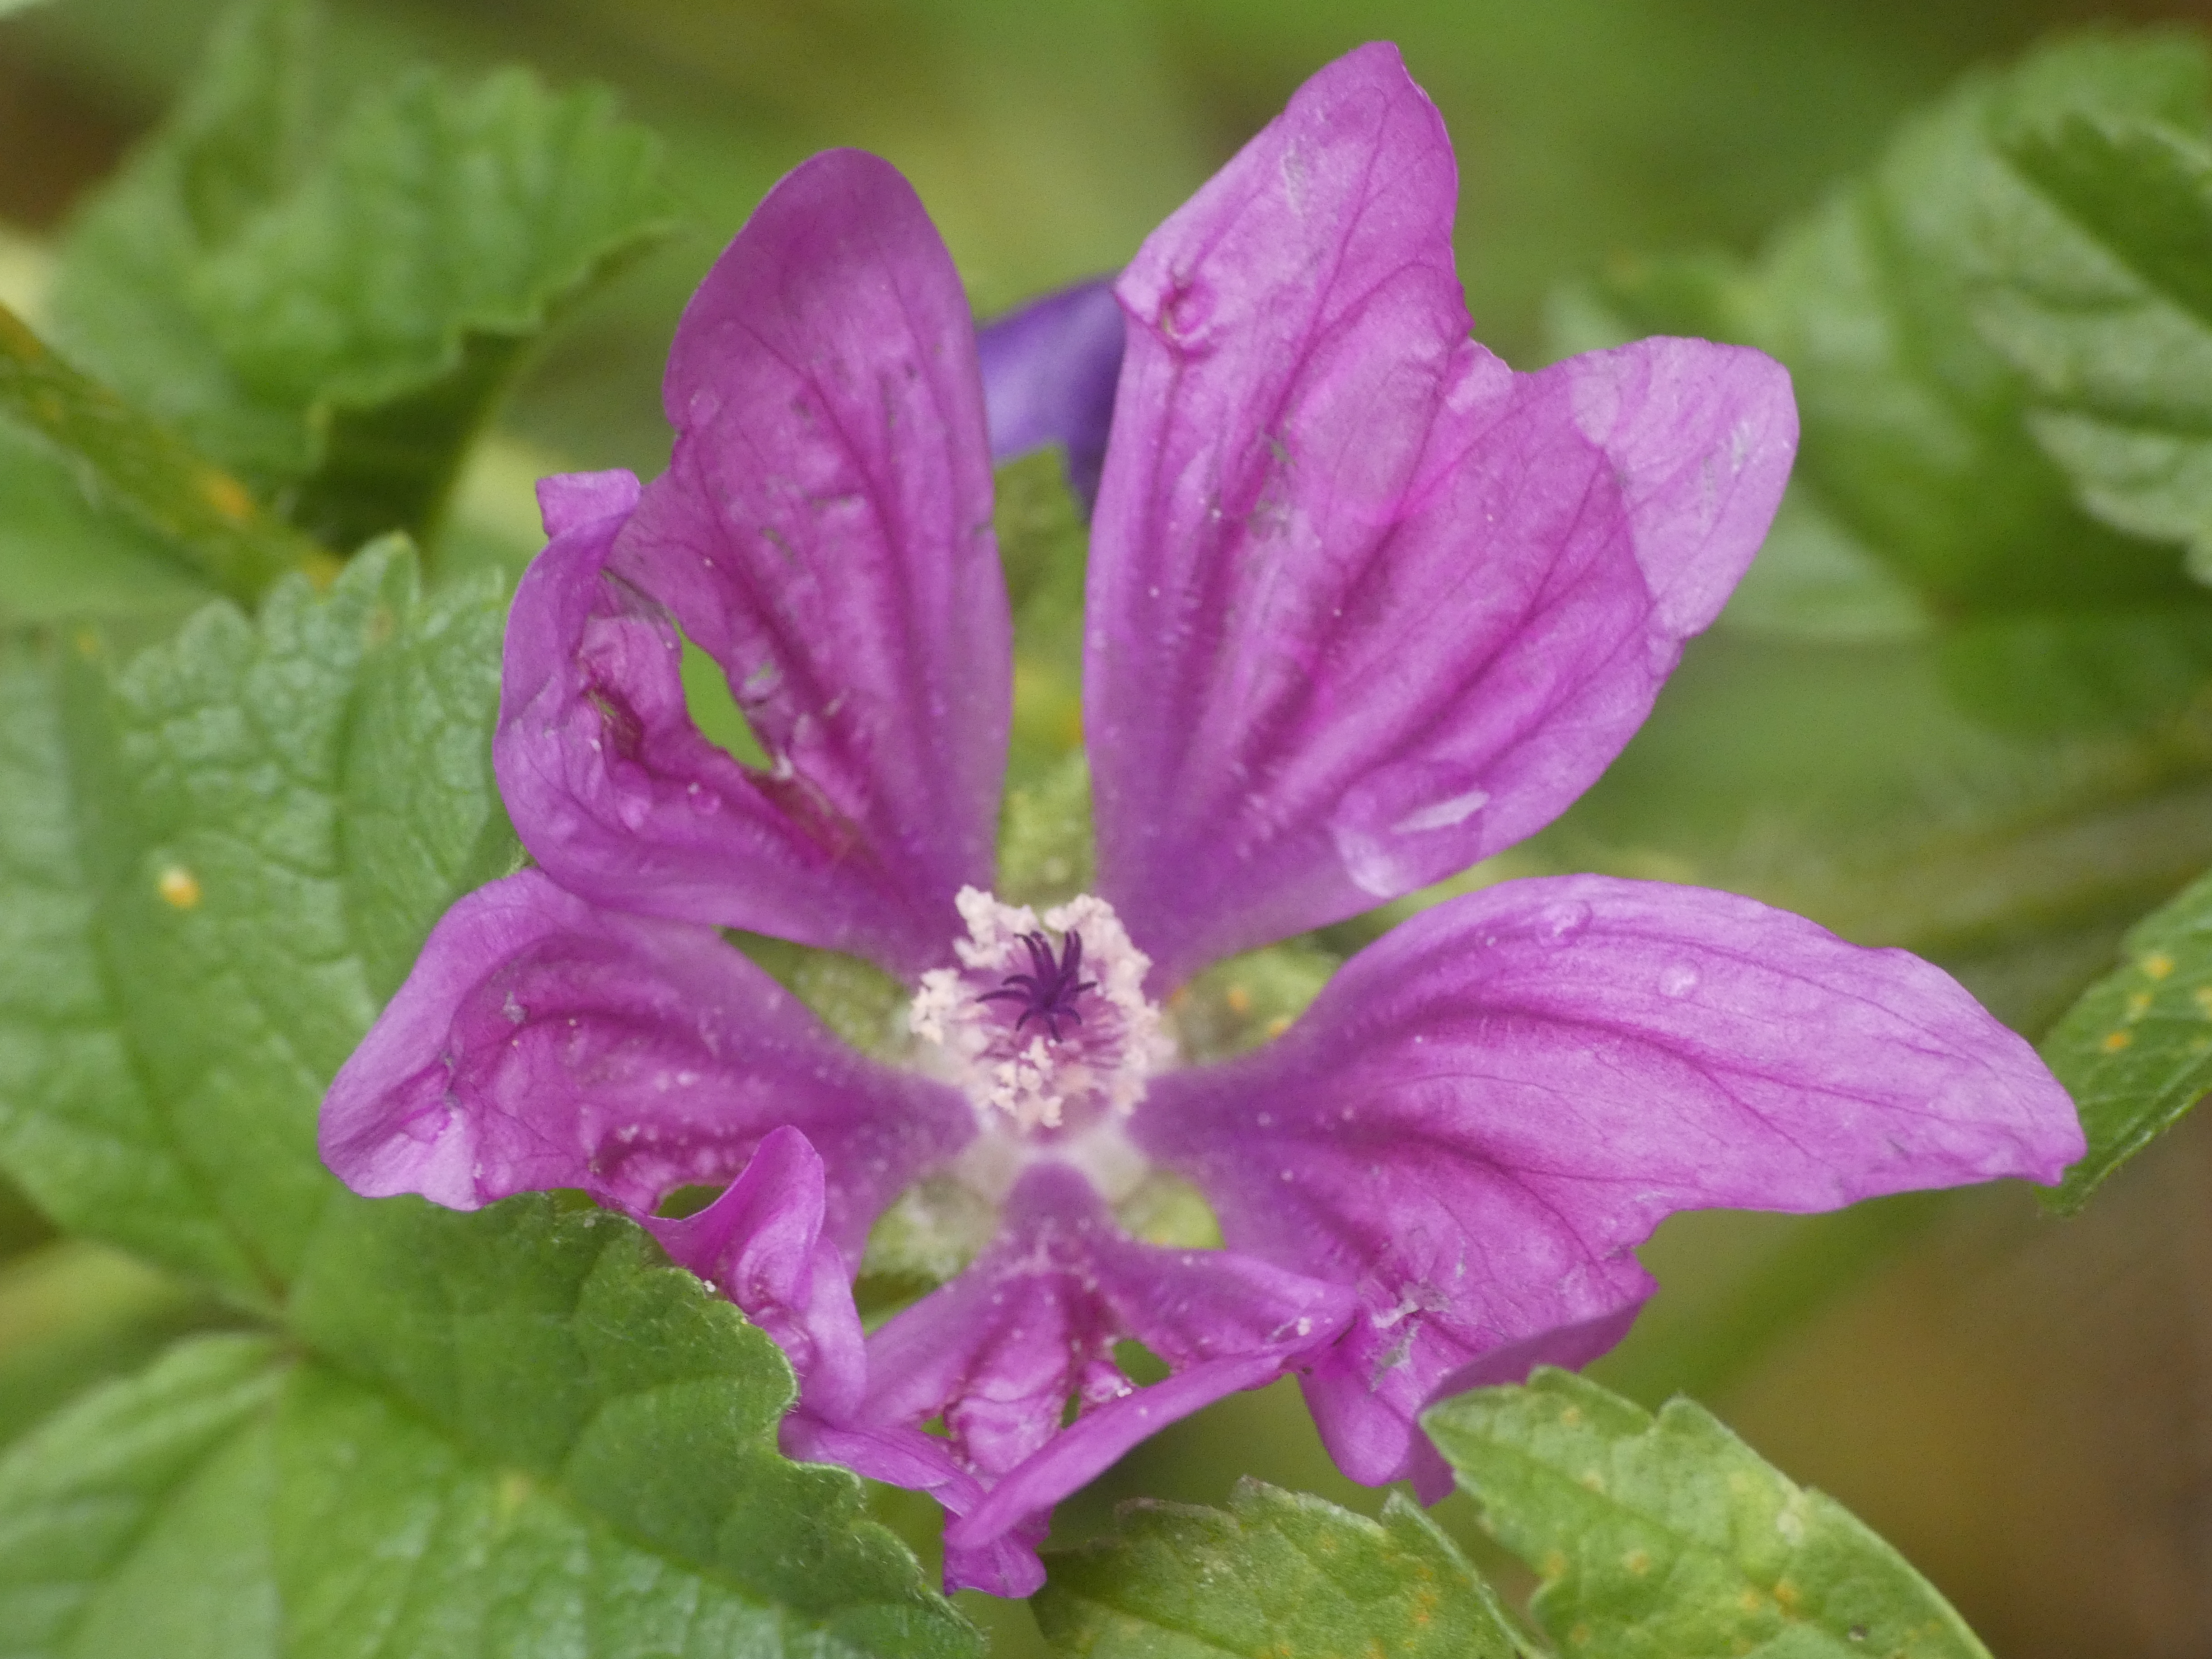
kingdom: Plantae
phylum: Tracheophyta
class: Magnoliopsida
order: Malvales
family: Malvaceae
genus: Malva
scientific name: Malva sylvestris
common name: Almindelig katost
